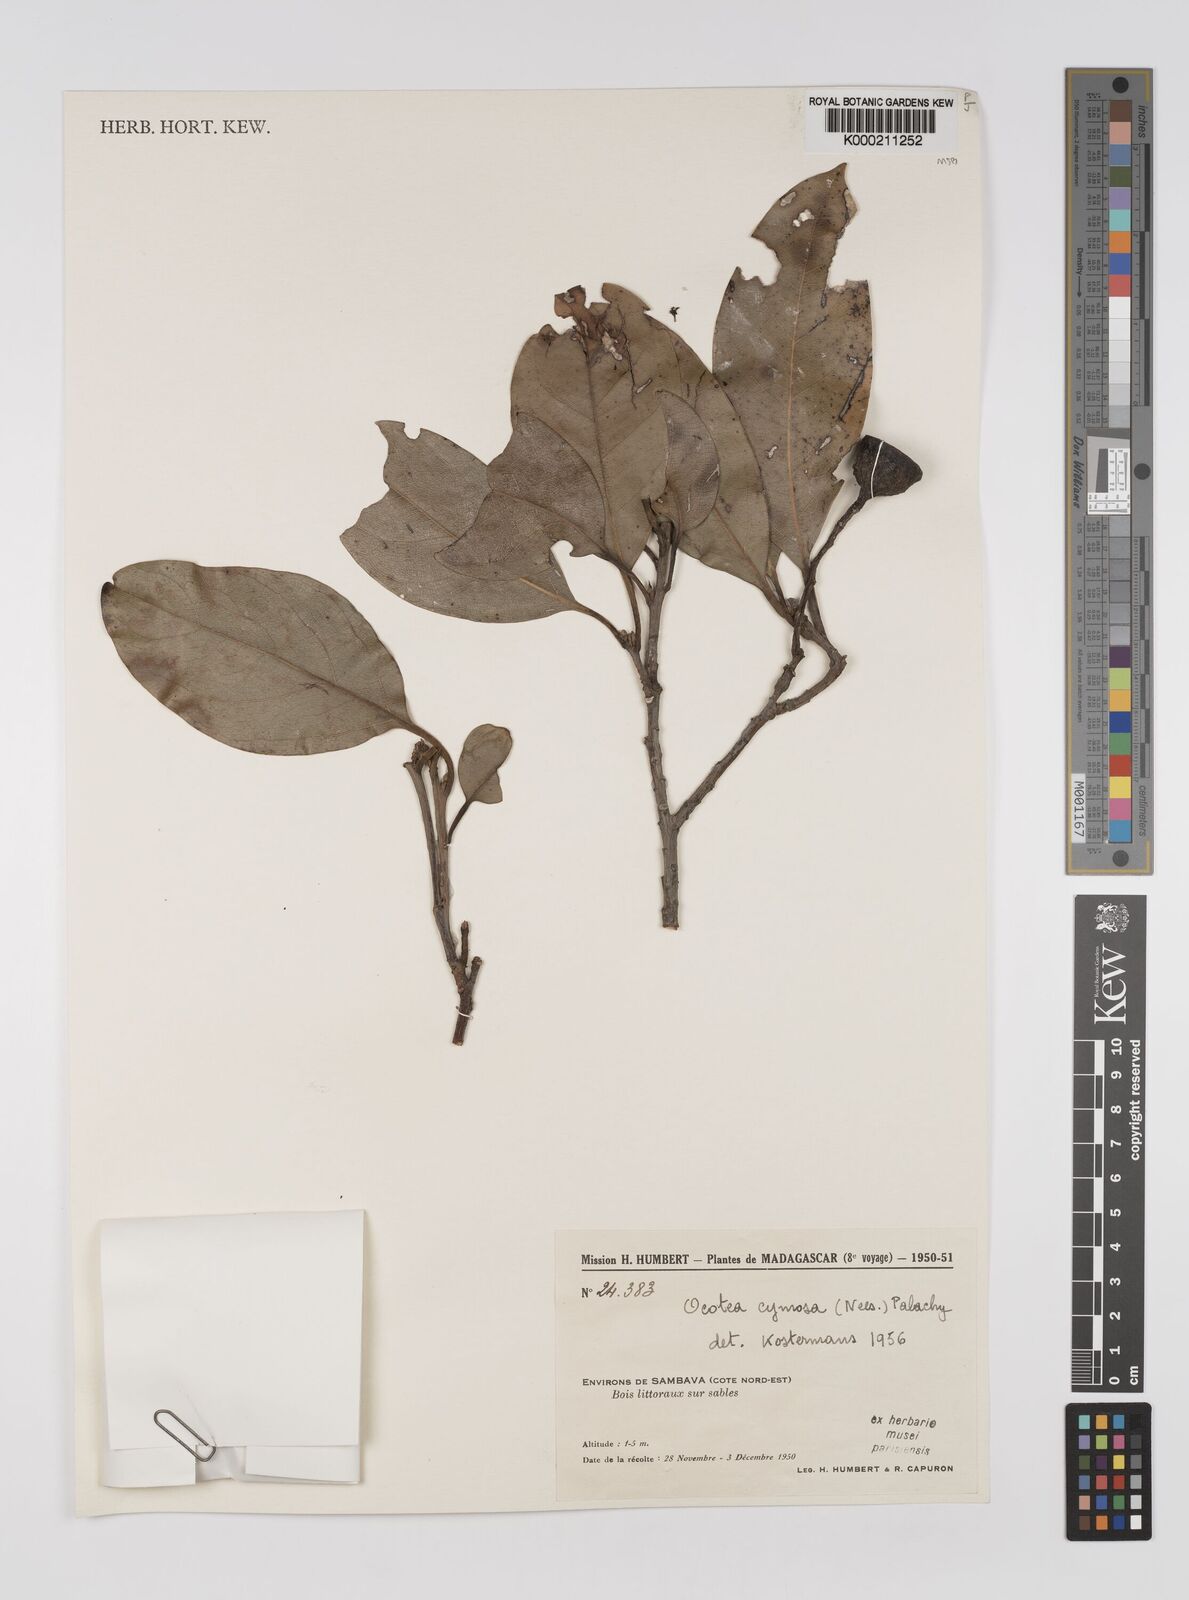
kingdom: Plantae
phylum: Tracheophyta
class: Magnoliopsida
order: Laurales
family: Lauraceae
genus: Mespilodaphne
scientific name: Mespilodaphne cymosa
